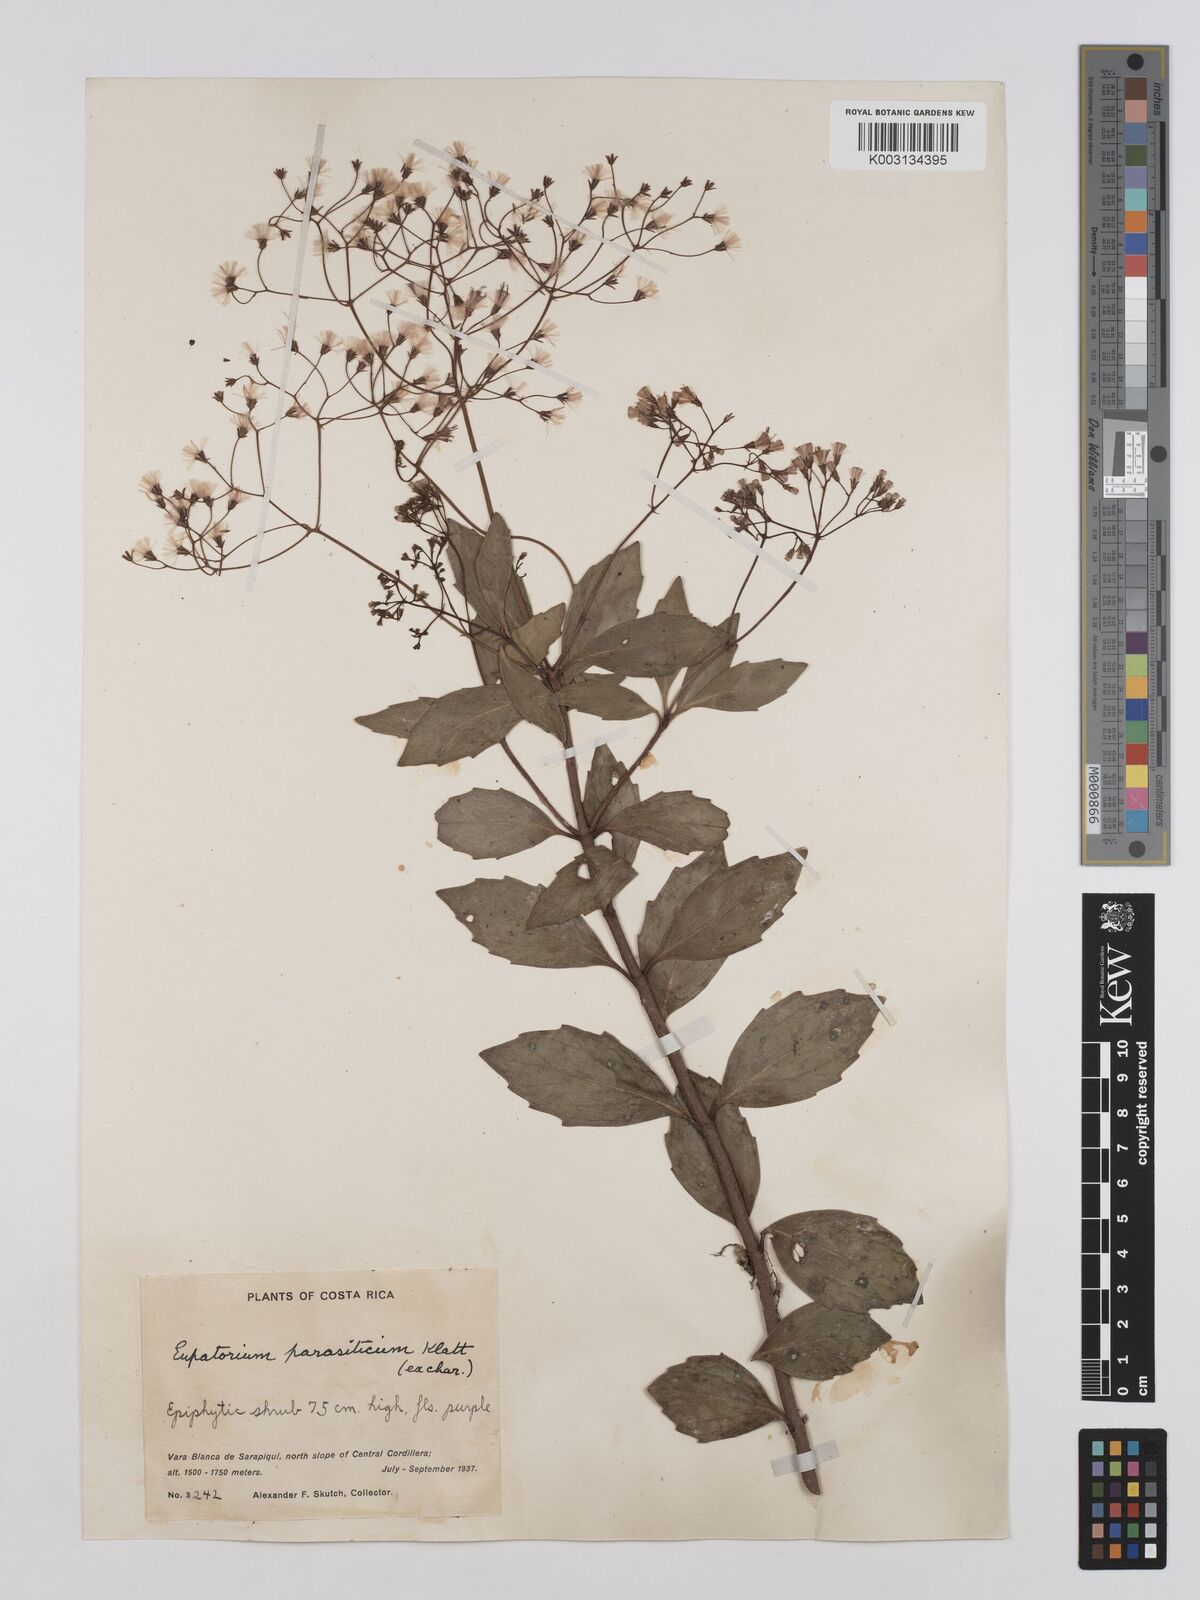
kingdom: Plantae
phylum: Tracheophyta
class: Magnoliopsida
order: Asterales
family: Asteraceae
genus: Neomirandea
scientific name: Neomirandea parasitica
